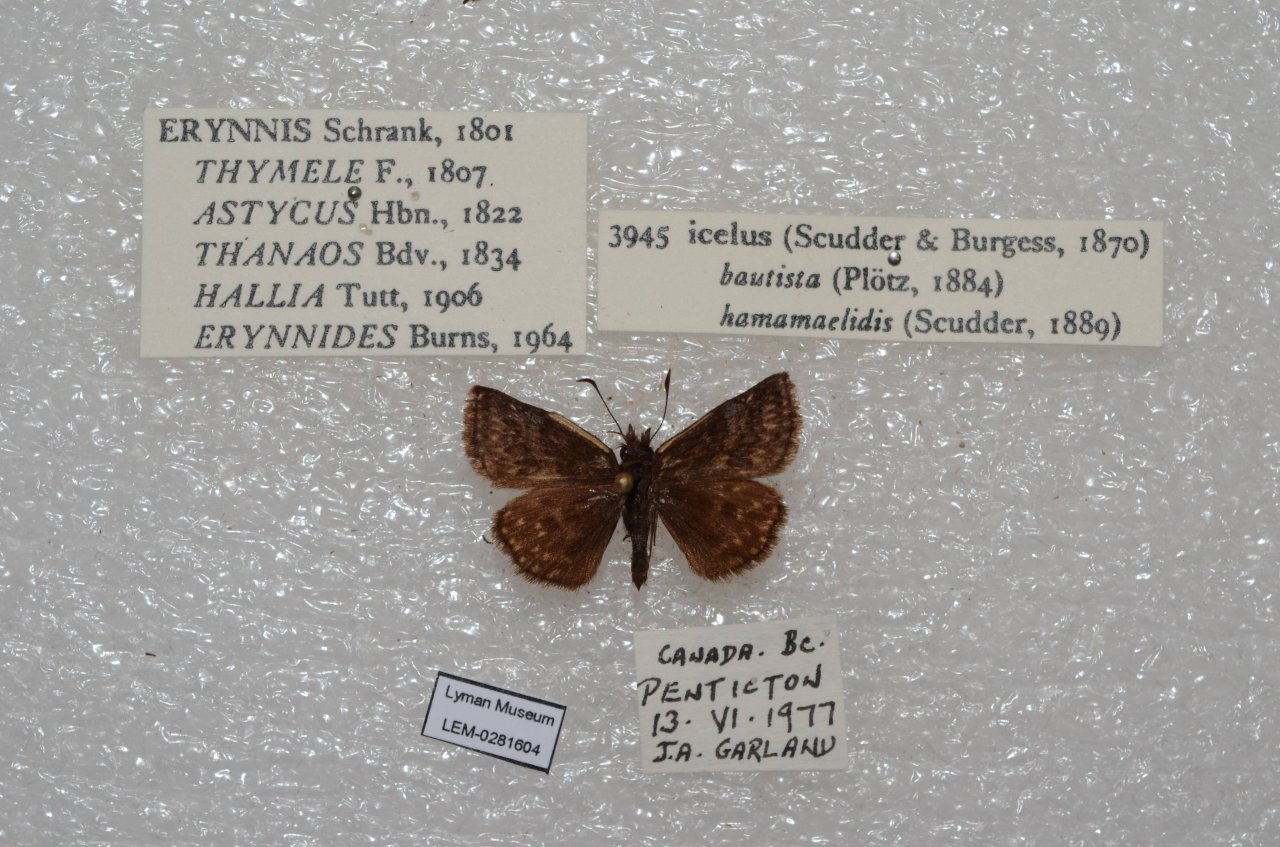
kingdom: Animalia
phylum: Arthropoda
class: Insecta
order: Lepidoptera
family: Hesperiidae
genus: Erynnis
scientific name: Erynnis icelus
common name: Dreamy Duskywing
